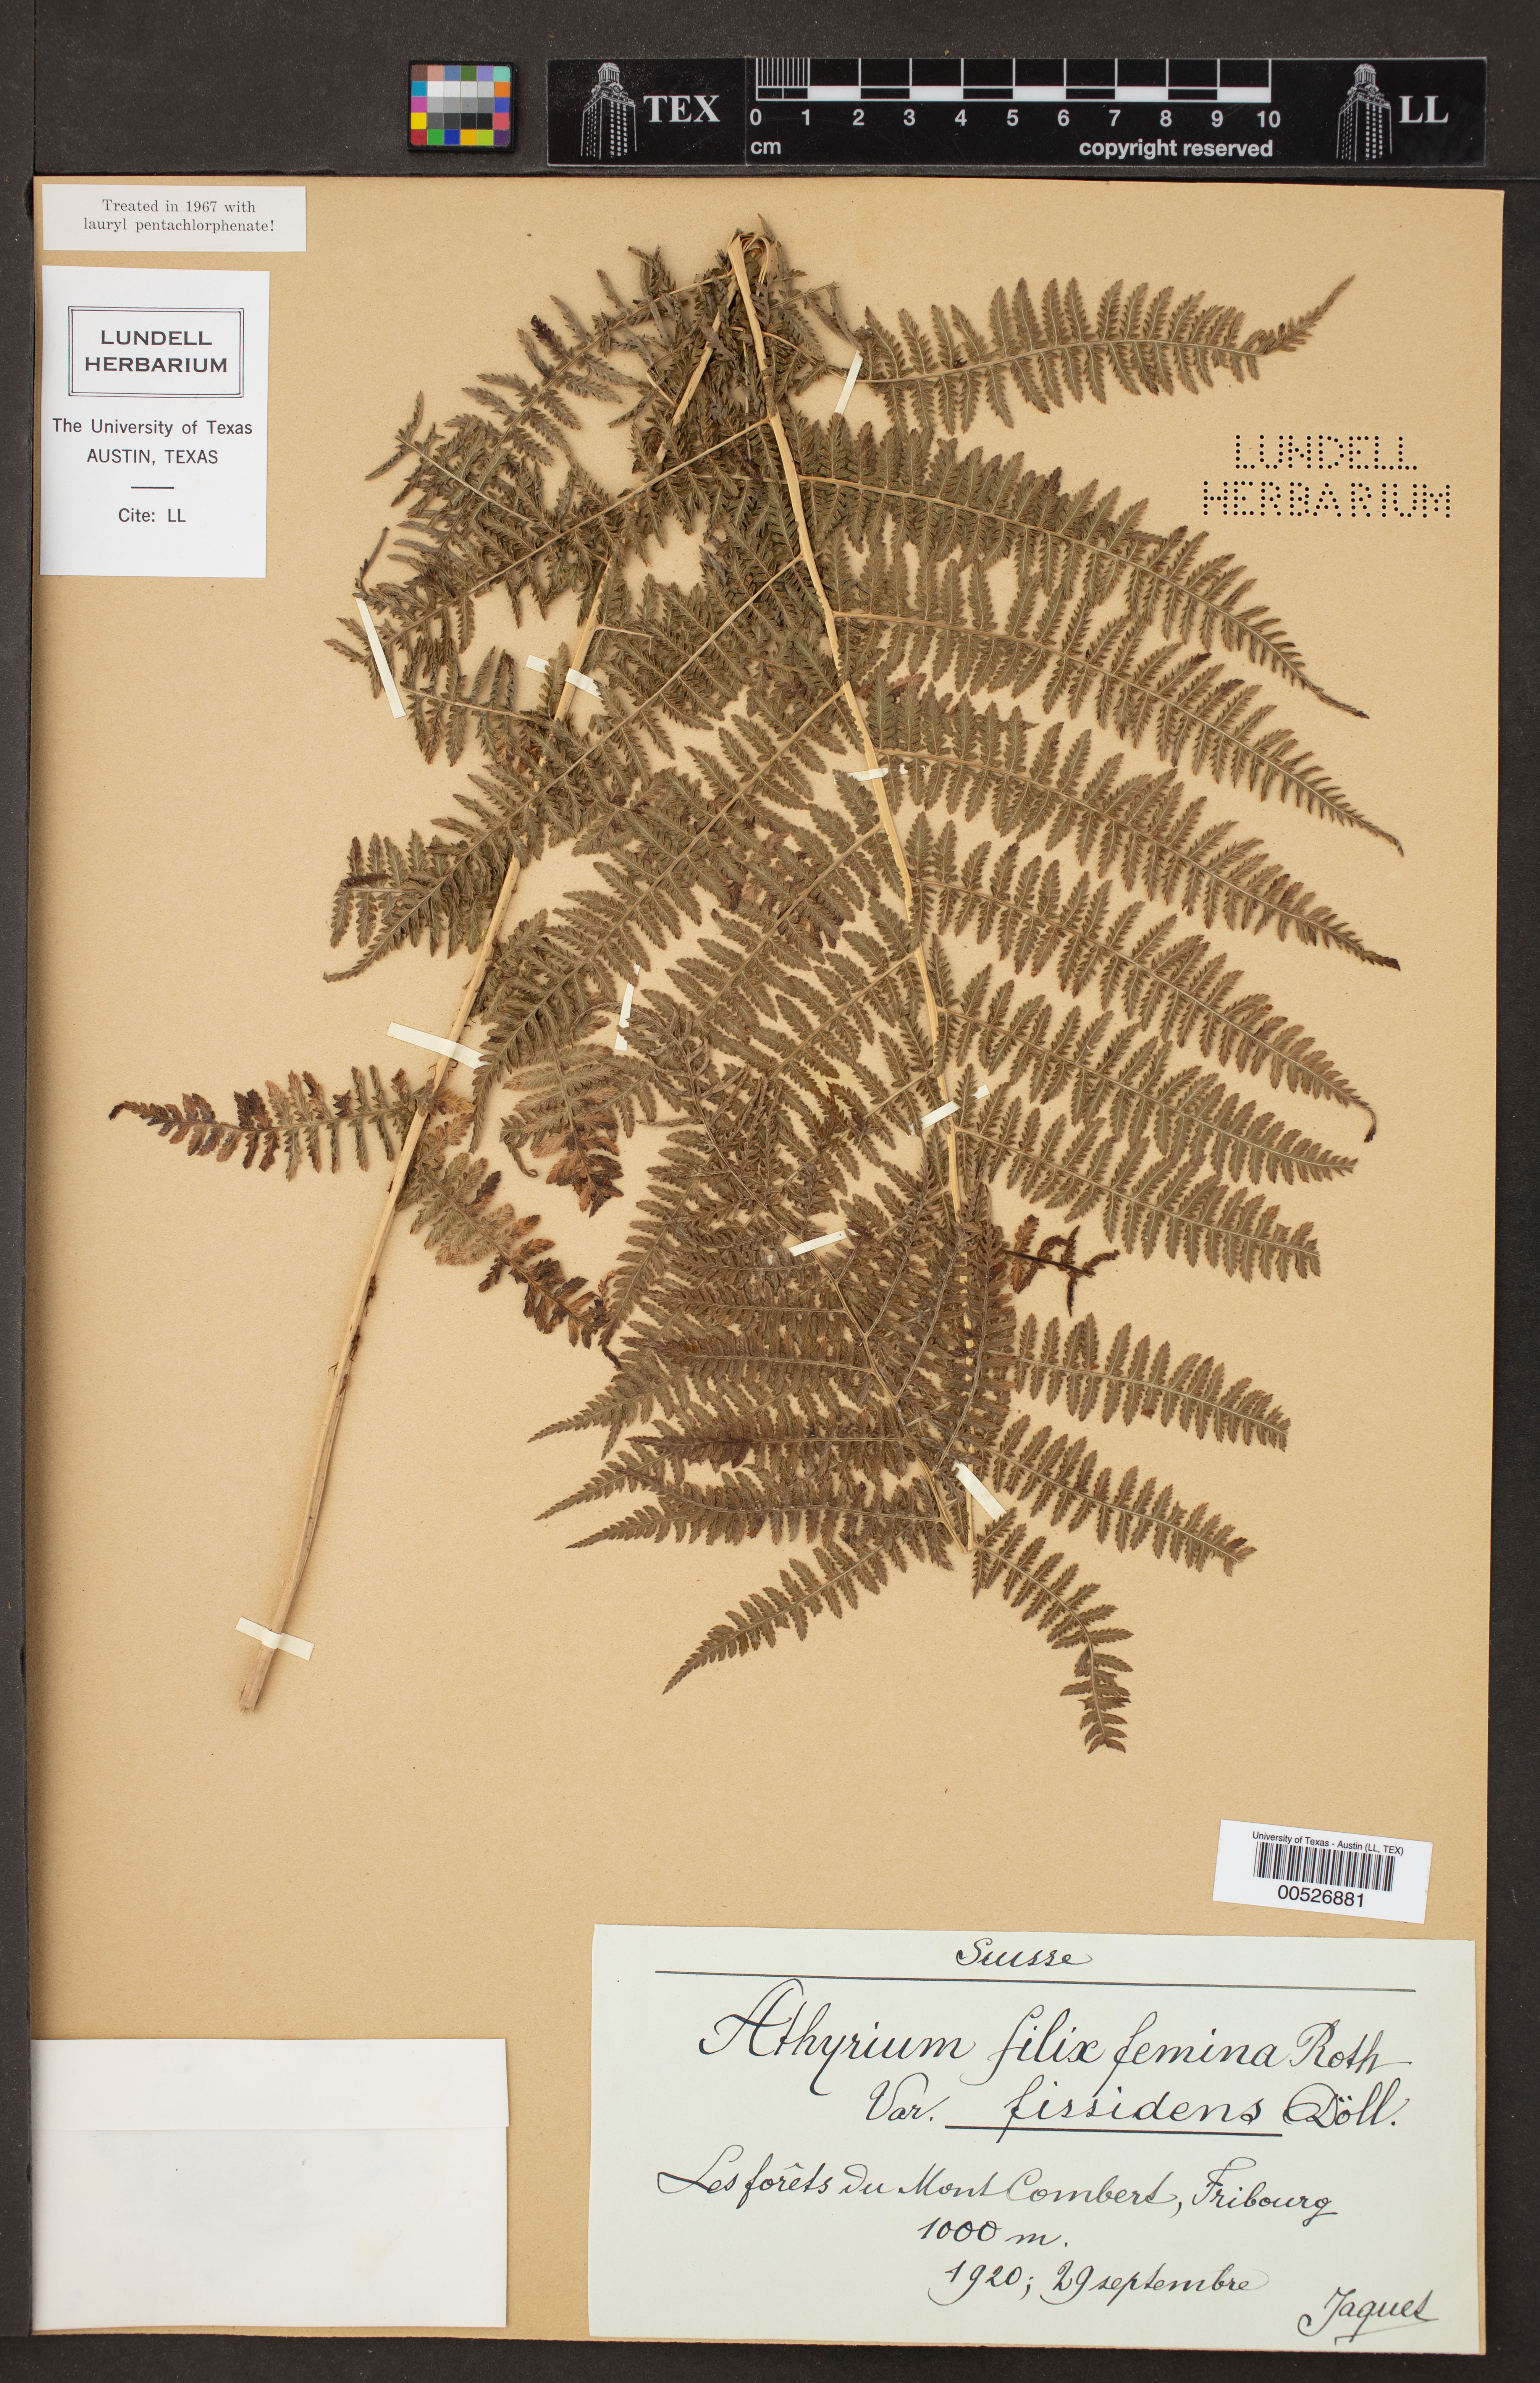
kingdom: Plantae
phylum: Tracheophyta
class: Polypodiopsida
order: Polypodiales
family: Athyriaceae
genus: Athyrium
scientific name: Athyrium filix-femina
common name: Lady fern
